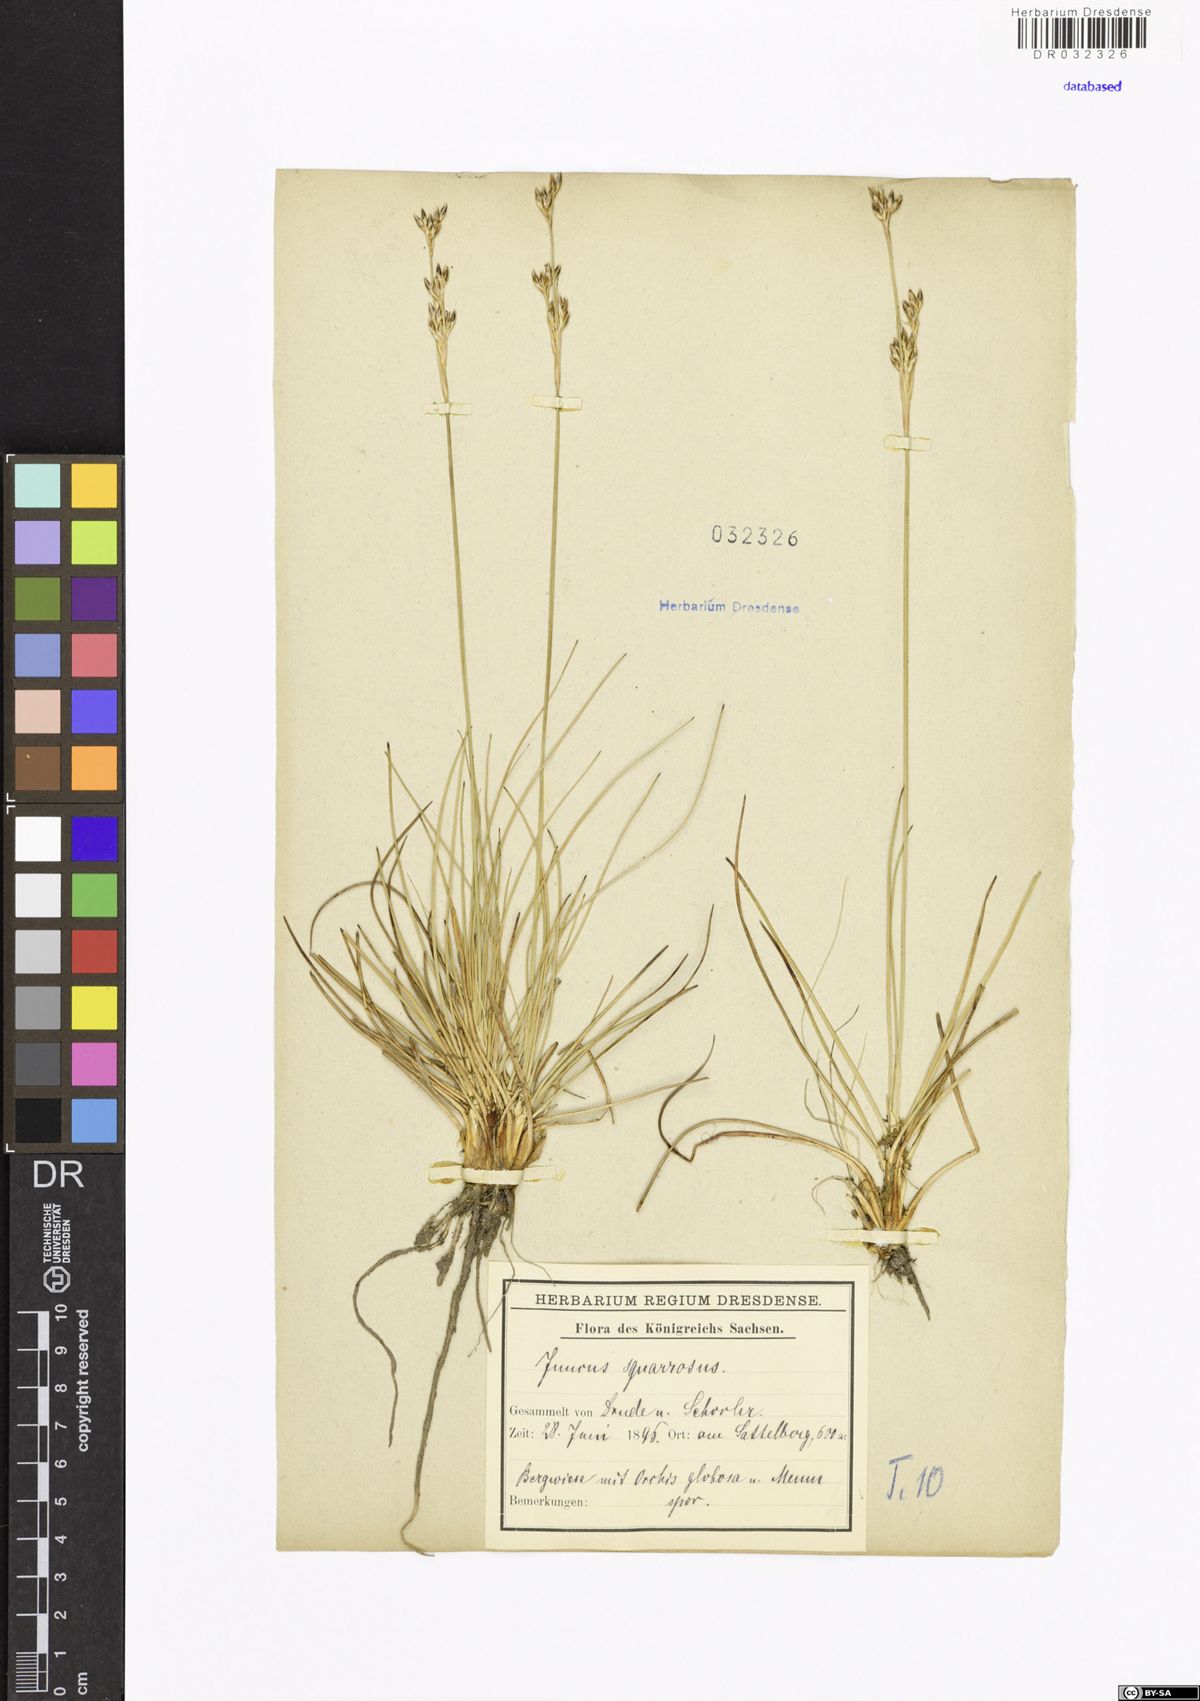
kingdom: Plantae
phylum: Tracheophyta
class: Liliopsida
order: Poales
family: Juncaceae
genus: Juncus
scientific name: Juncus squarrosus
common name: Heath rush
